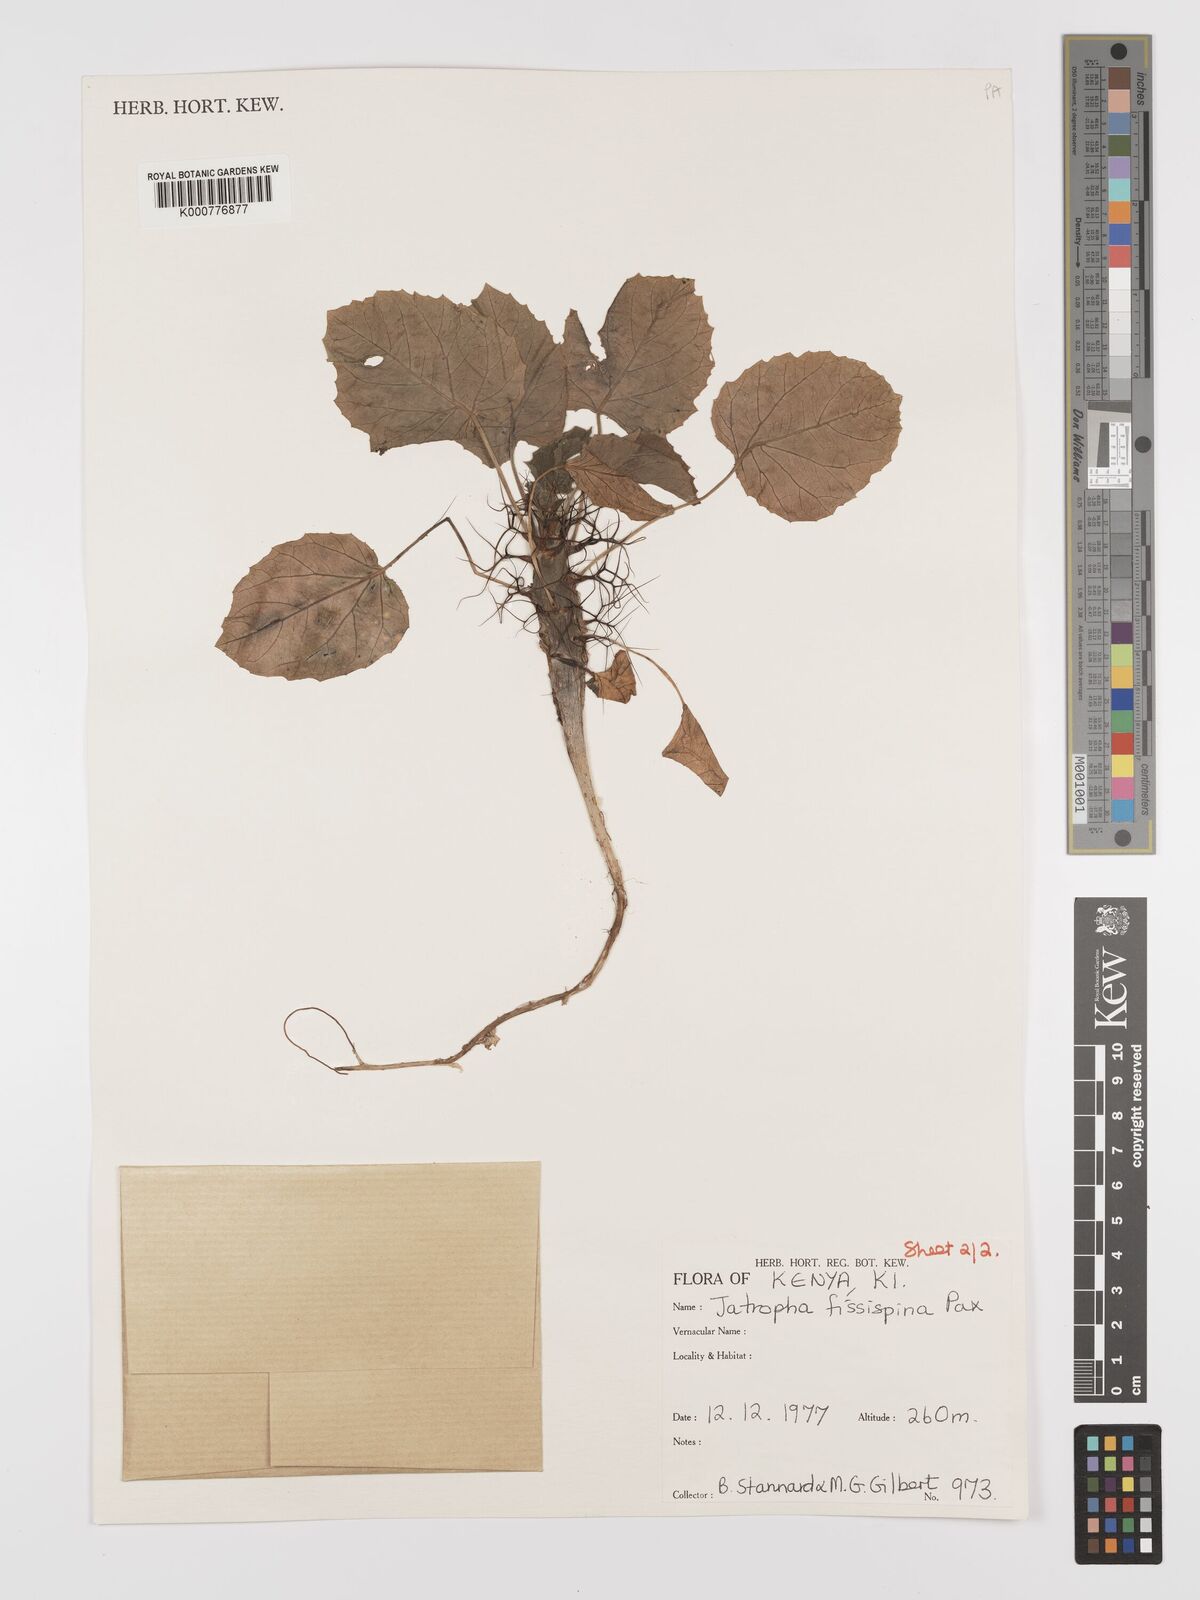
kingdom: Plantae
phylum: Tracheophyta
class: Magnoliopsida
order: Malpighiales
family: Euphorbiaceae
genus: Jatropha
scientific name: Jatropha ellenbeckii
